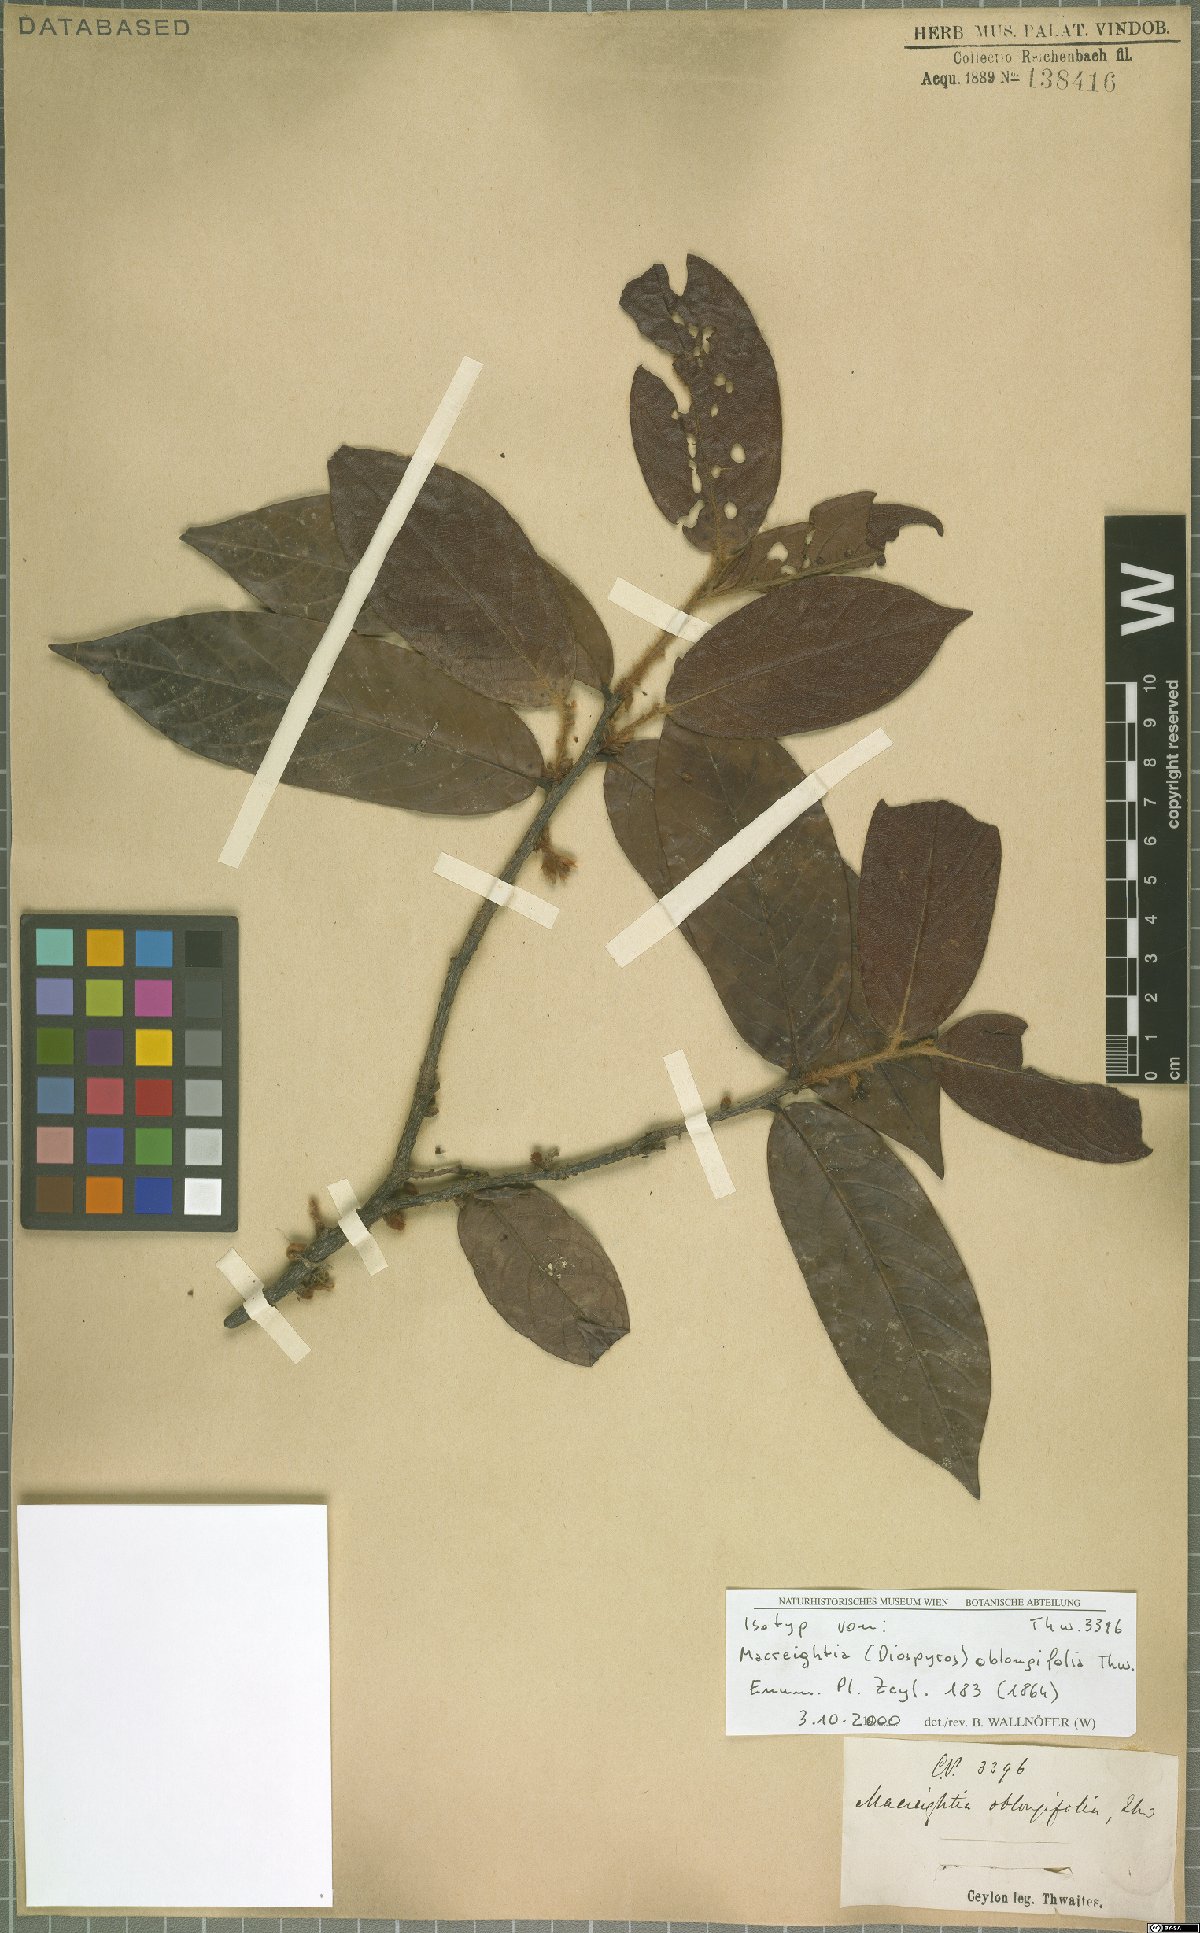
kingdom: Plantae
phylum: Tracheophyta
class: Magnoliopsida
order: Ericales
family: Ebenaceae
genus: Diospyros
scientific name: Diospyros srilankana
